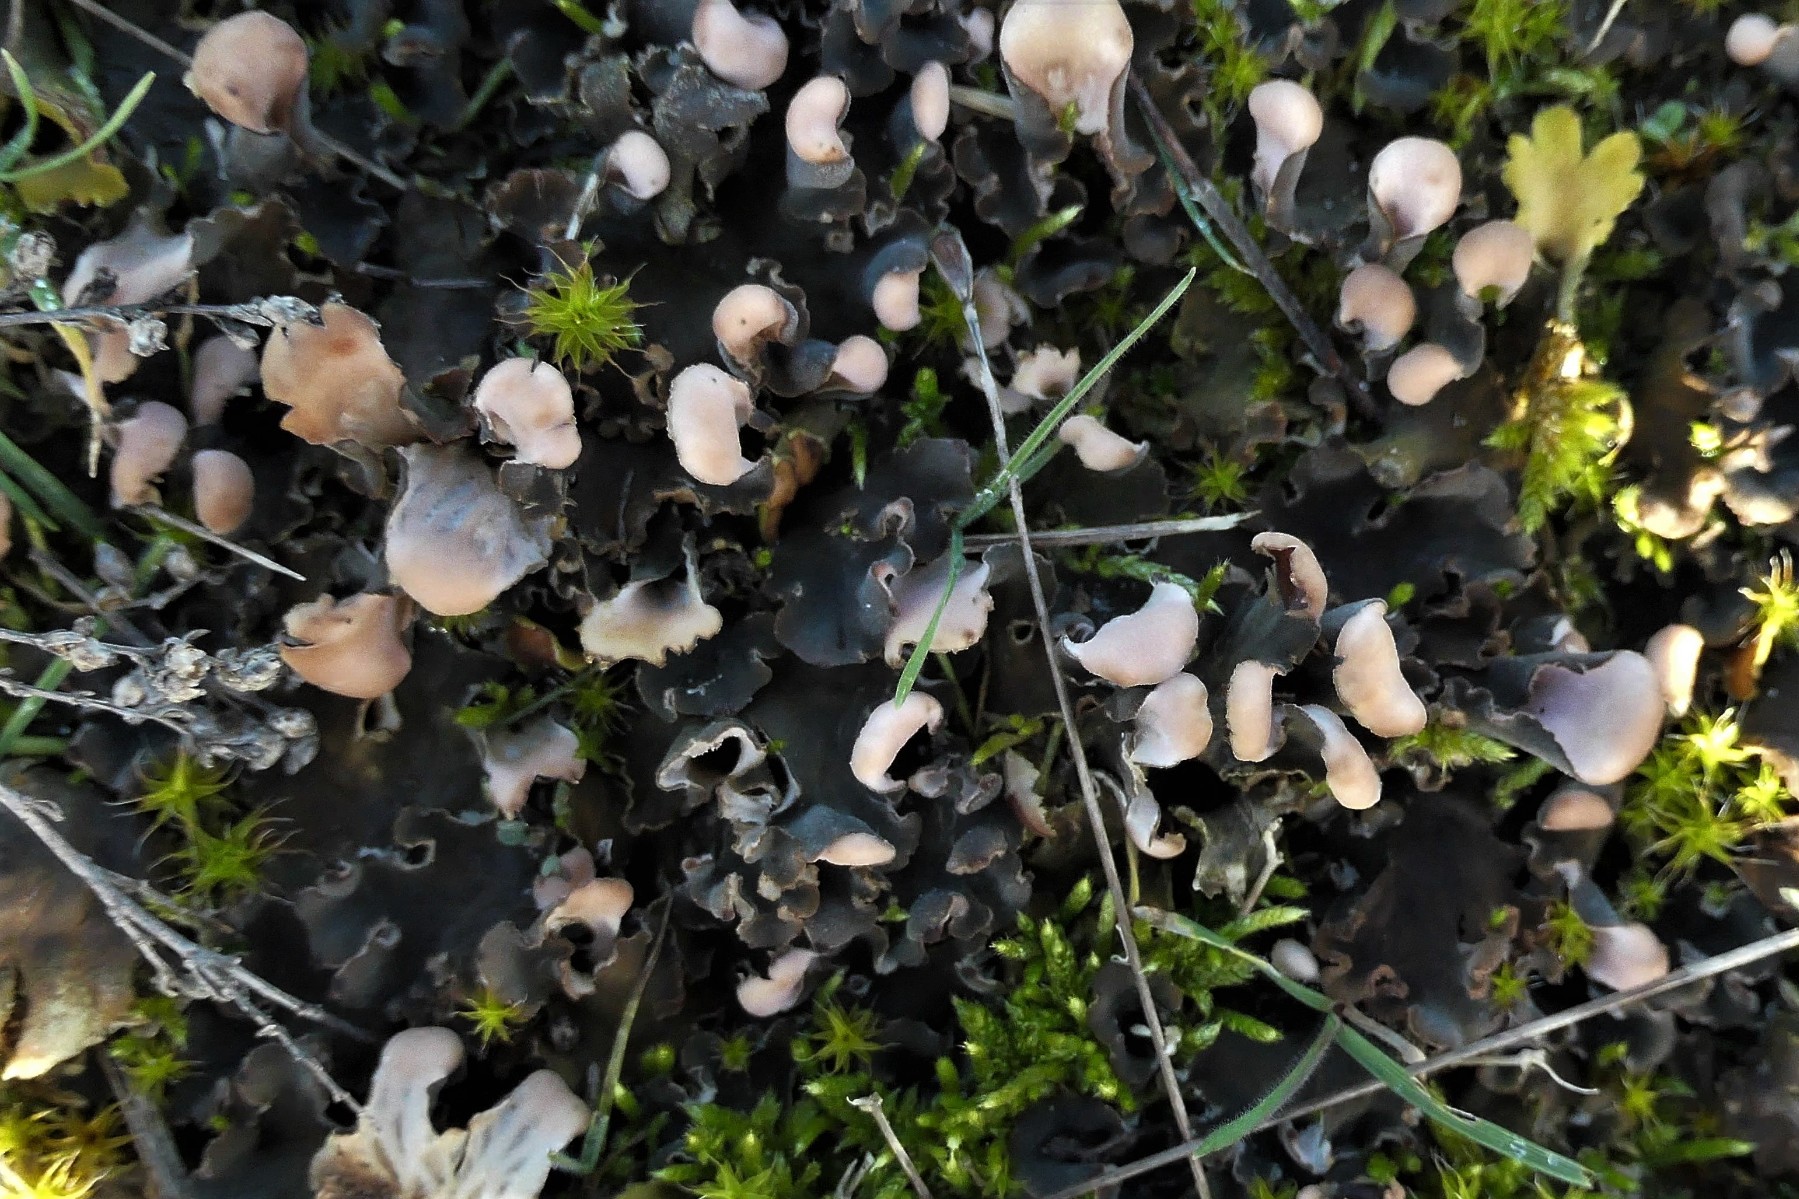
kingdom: Fungi
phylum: Ascomycota
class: Lecanoromycetes
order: Peltigerales
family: Peltigeraceae
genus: Peltigera
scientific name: Peltigera membranacea
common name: tynd skjoldlav
